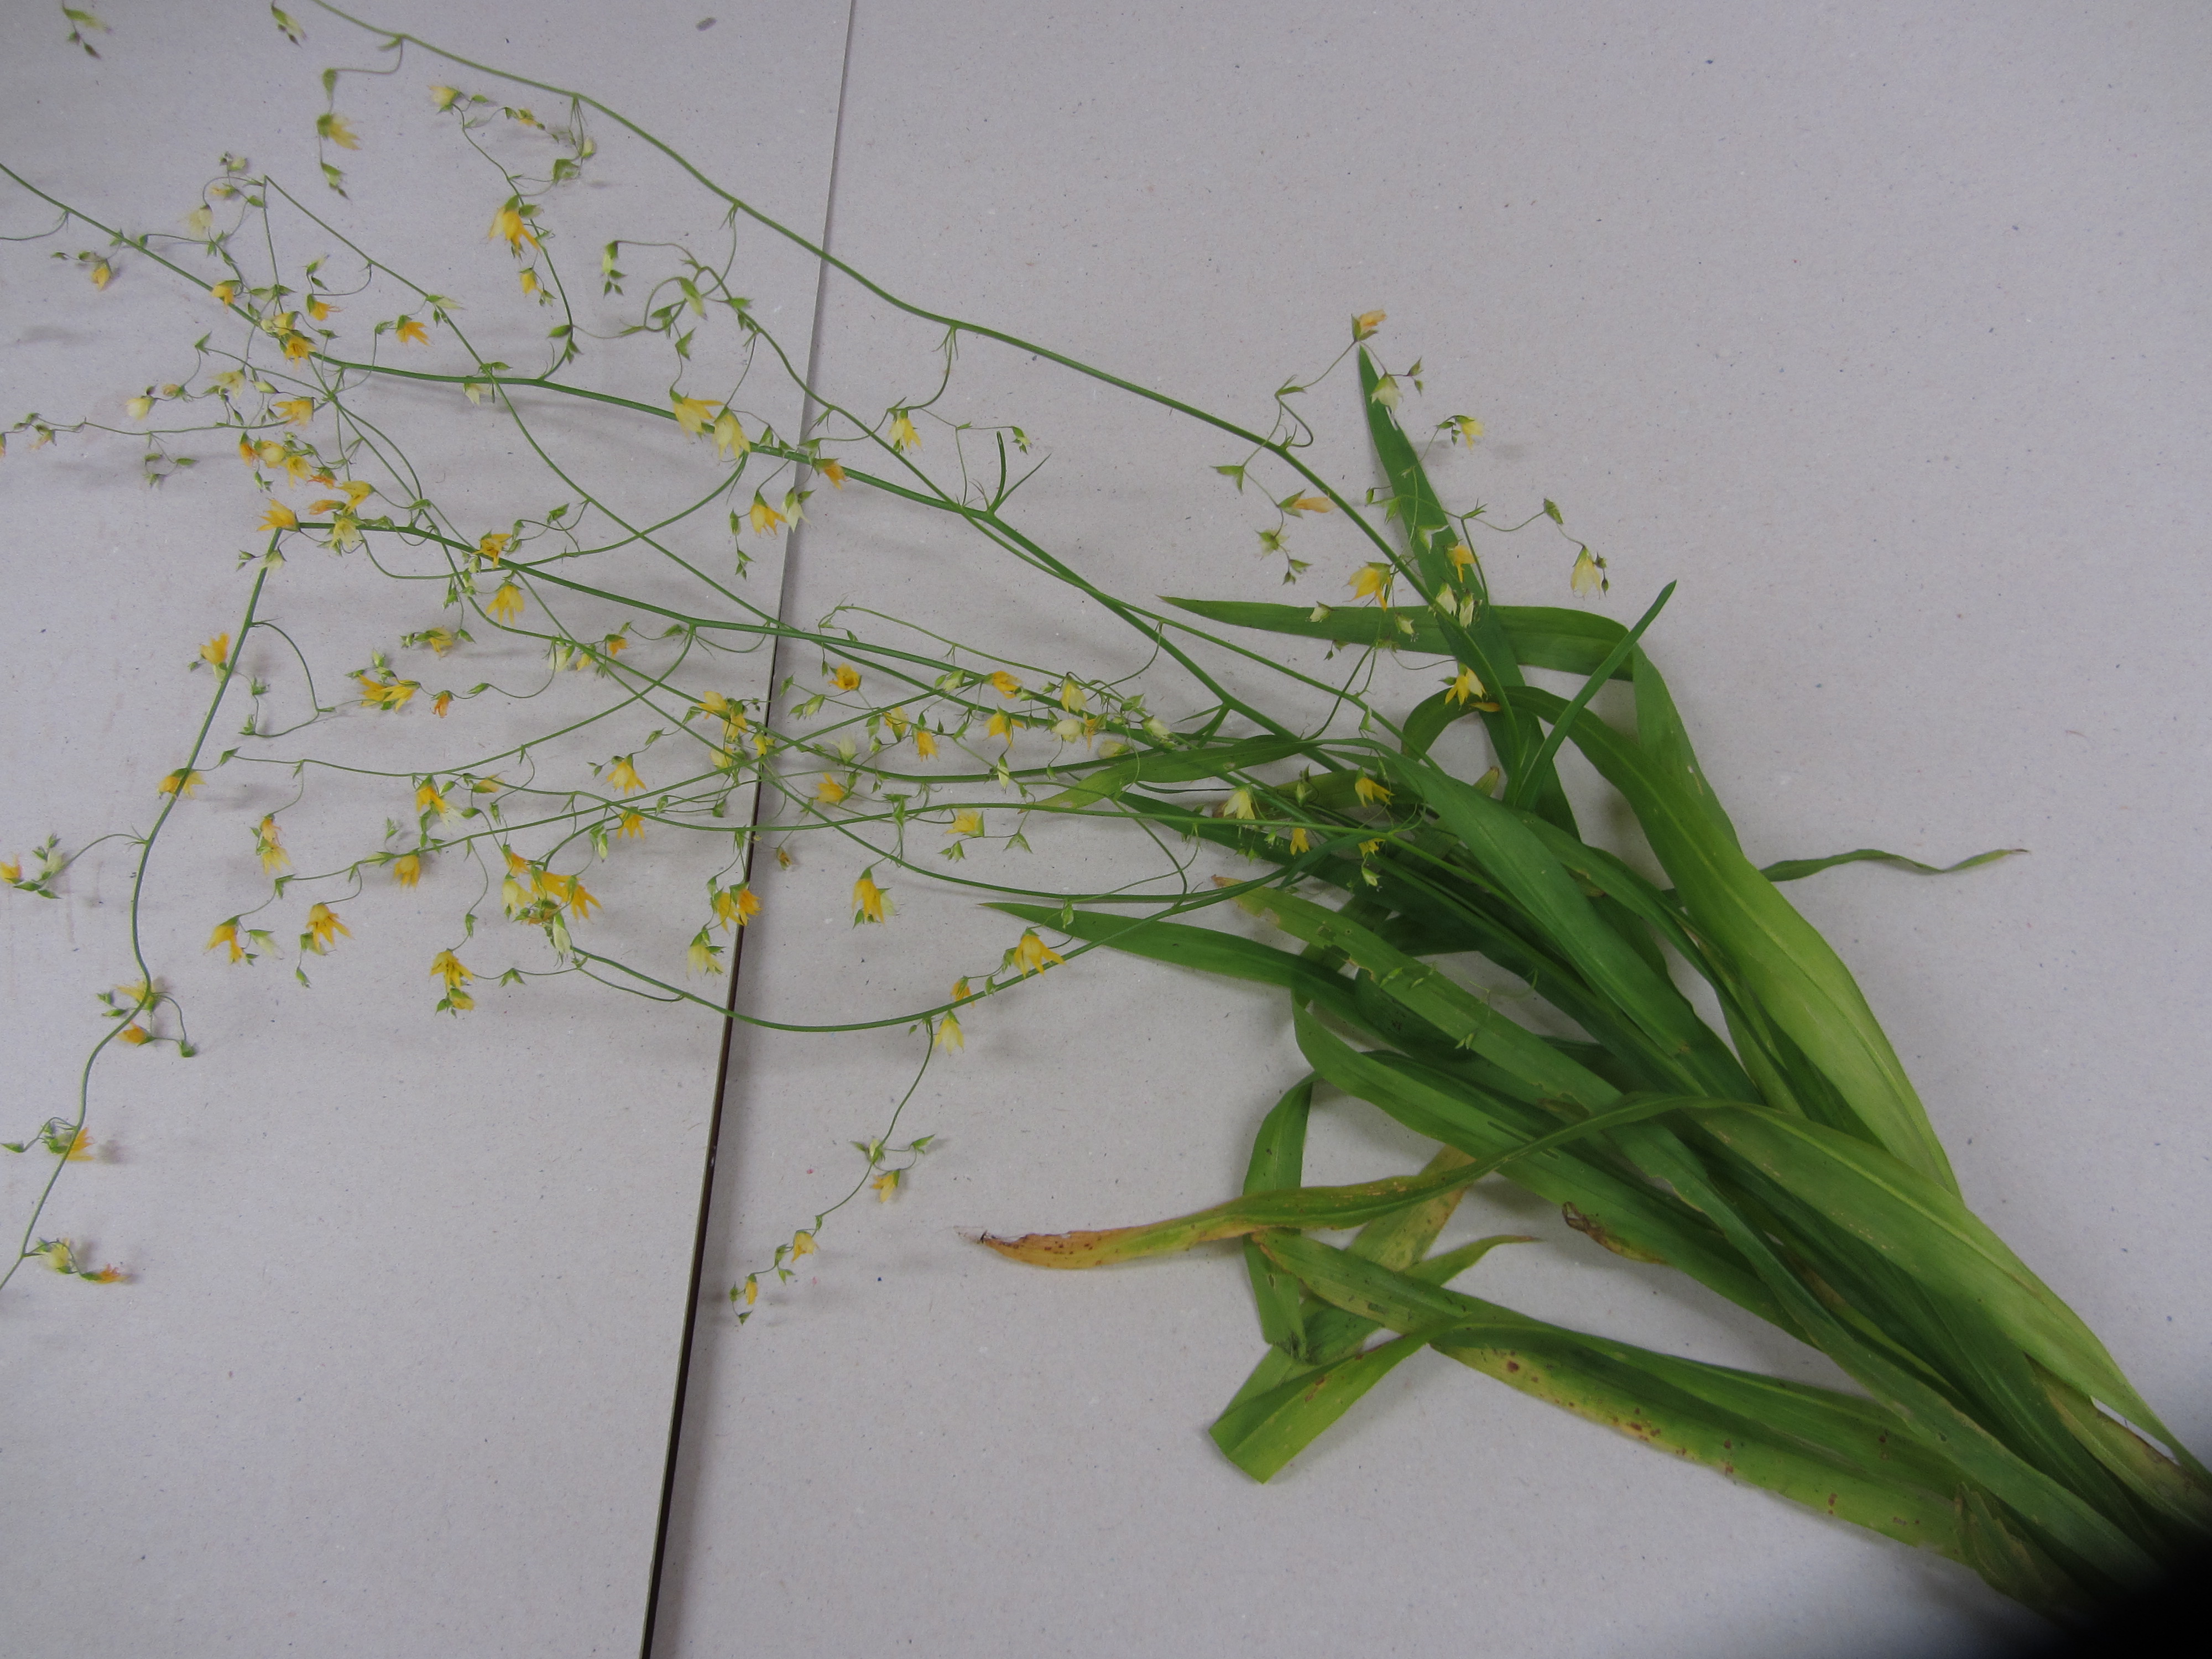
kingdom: Plantae
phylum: Tracheophyta
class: Liliopsida
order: Asparagales
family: Iridaceae
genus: Ixia
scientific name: Ixia scillaris
